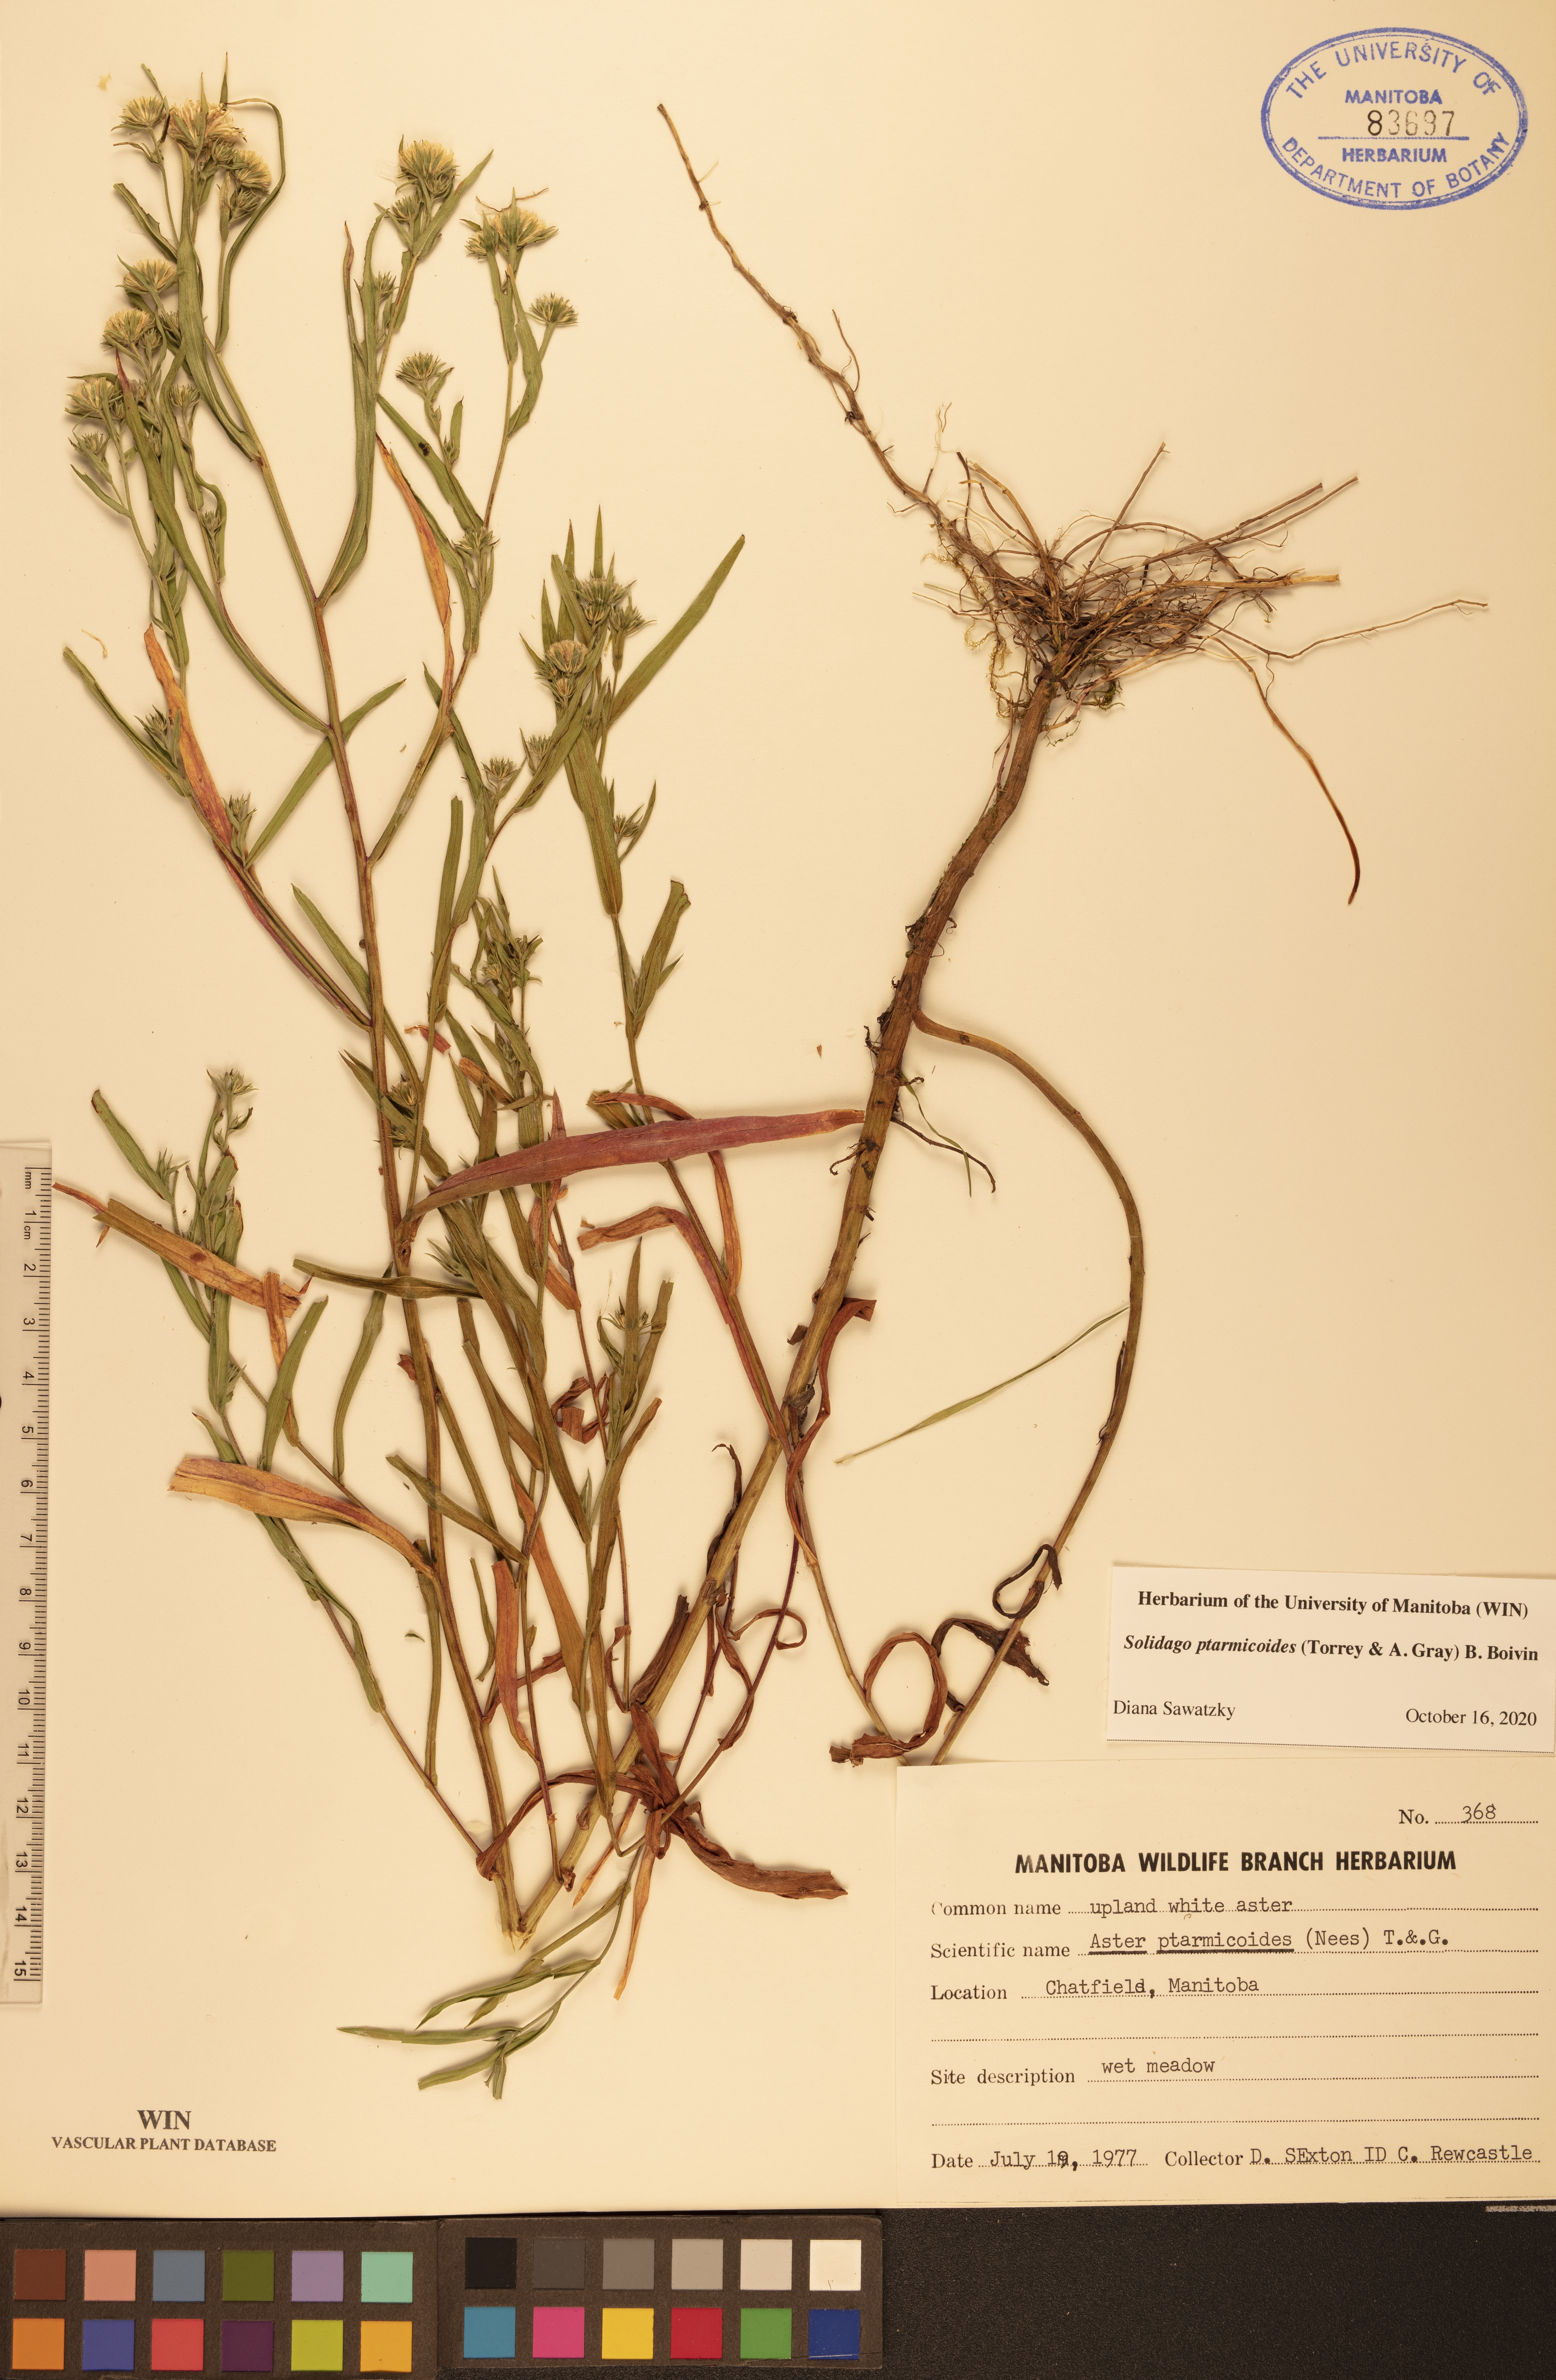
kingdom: Plantae
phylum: Tracheophyta
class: Magnoliopsida
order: Asterales
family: Asteraceae
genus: Solidago
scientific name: Solidago ptarmicoides
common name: White flat-top goldenrod
